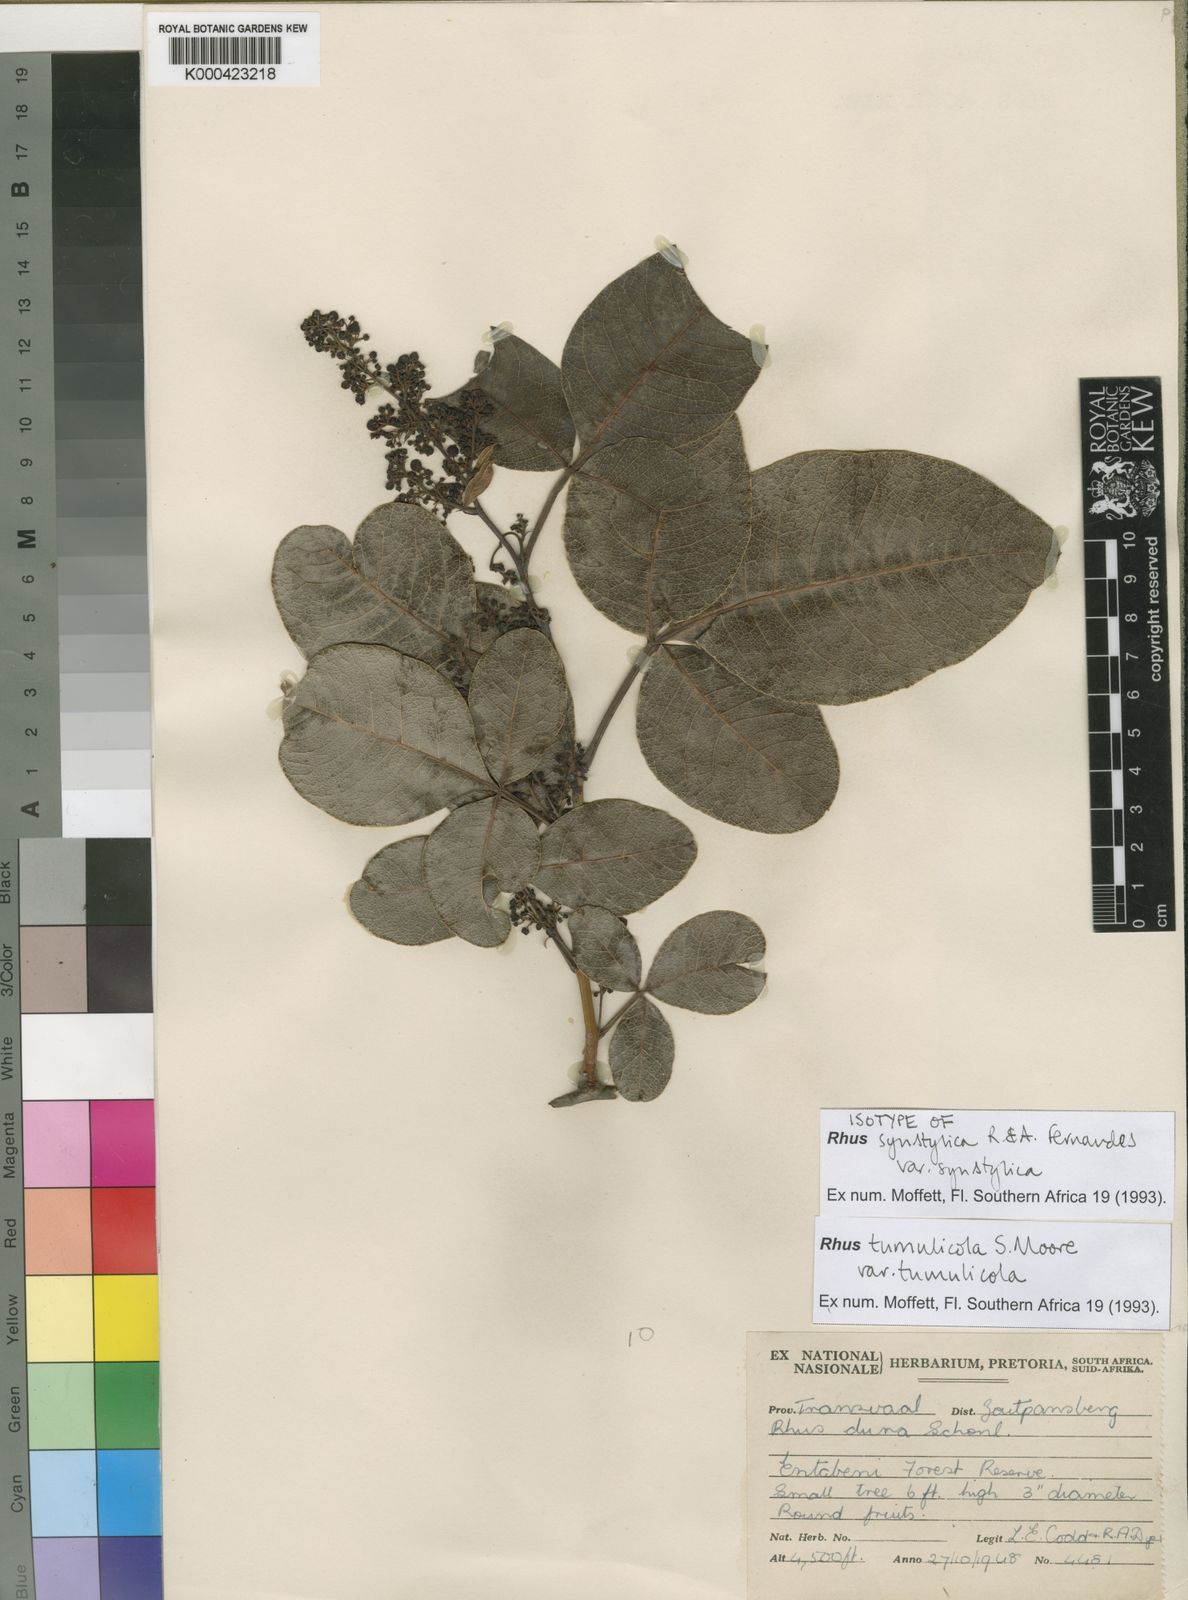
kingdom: Plantae
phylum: Tracheophyta
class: Magnoliopsida
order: Sapindales
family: Anacardiaceae
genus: Searsia
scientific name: Searsia tumulicola
